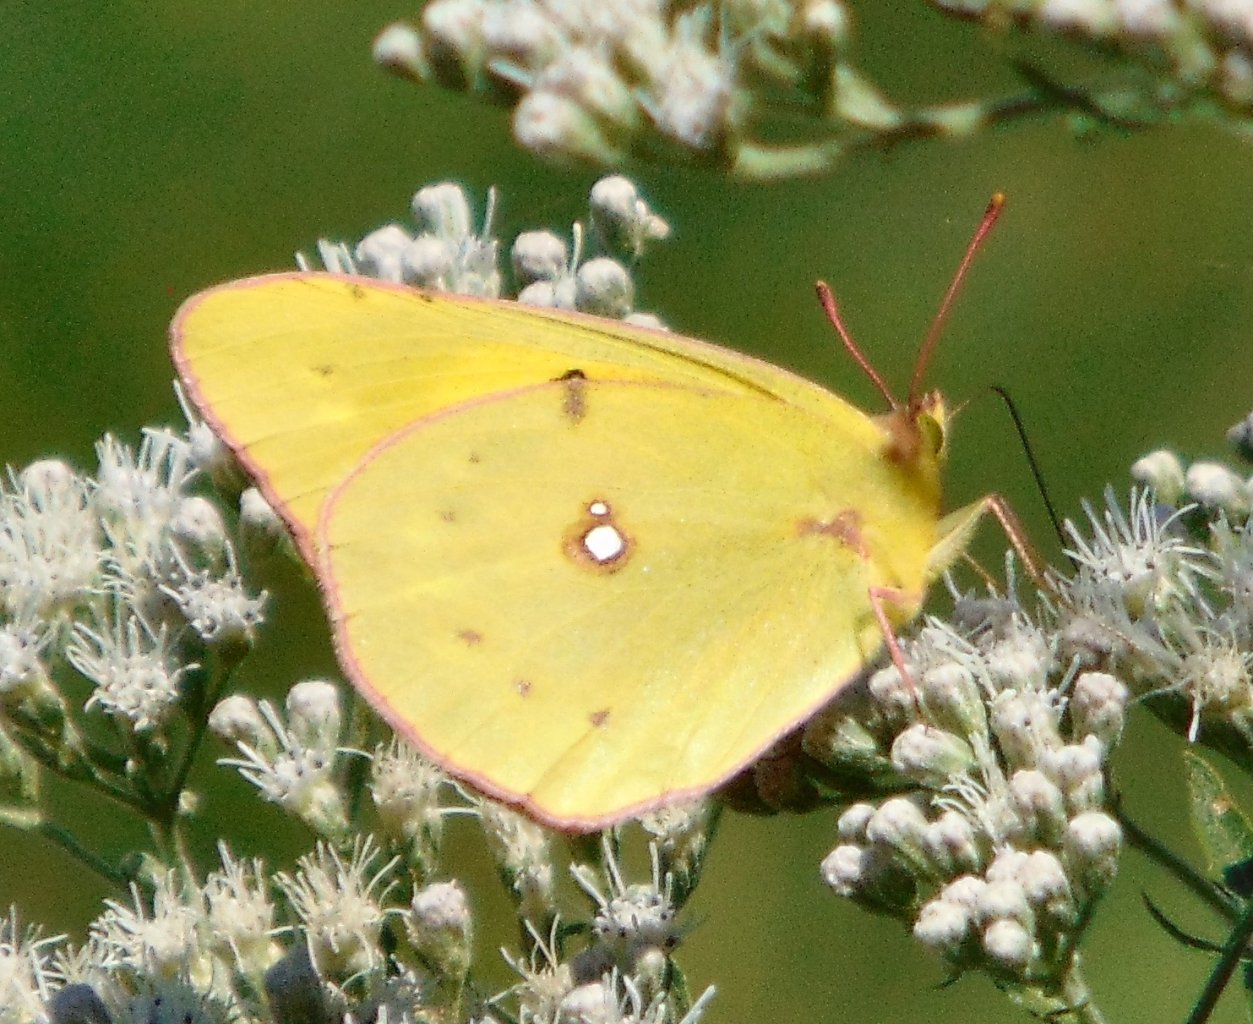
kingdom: Animalia
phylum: Arthropoda
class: Insecta
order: Lepidoptera
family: Pieridae
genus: Colias
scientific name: Colias eurytheme
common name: Orange Sulphur
